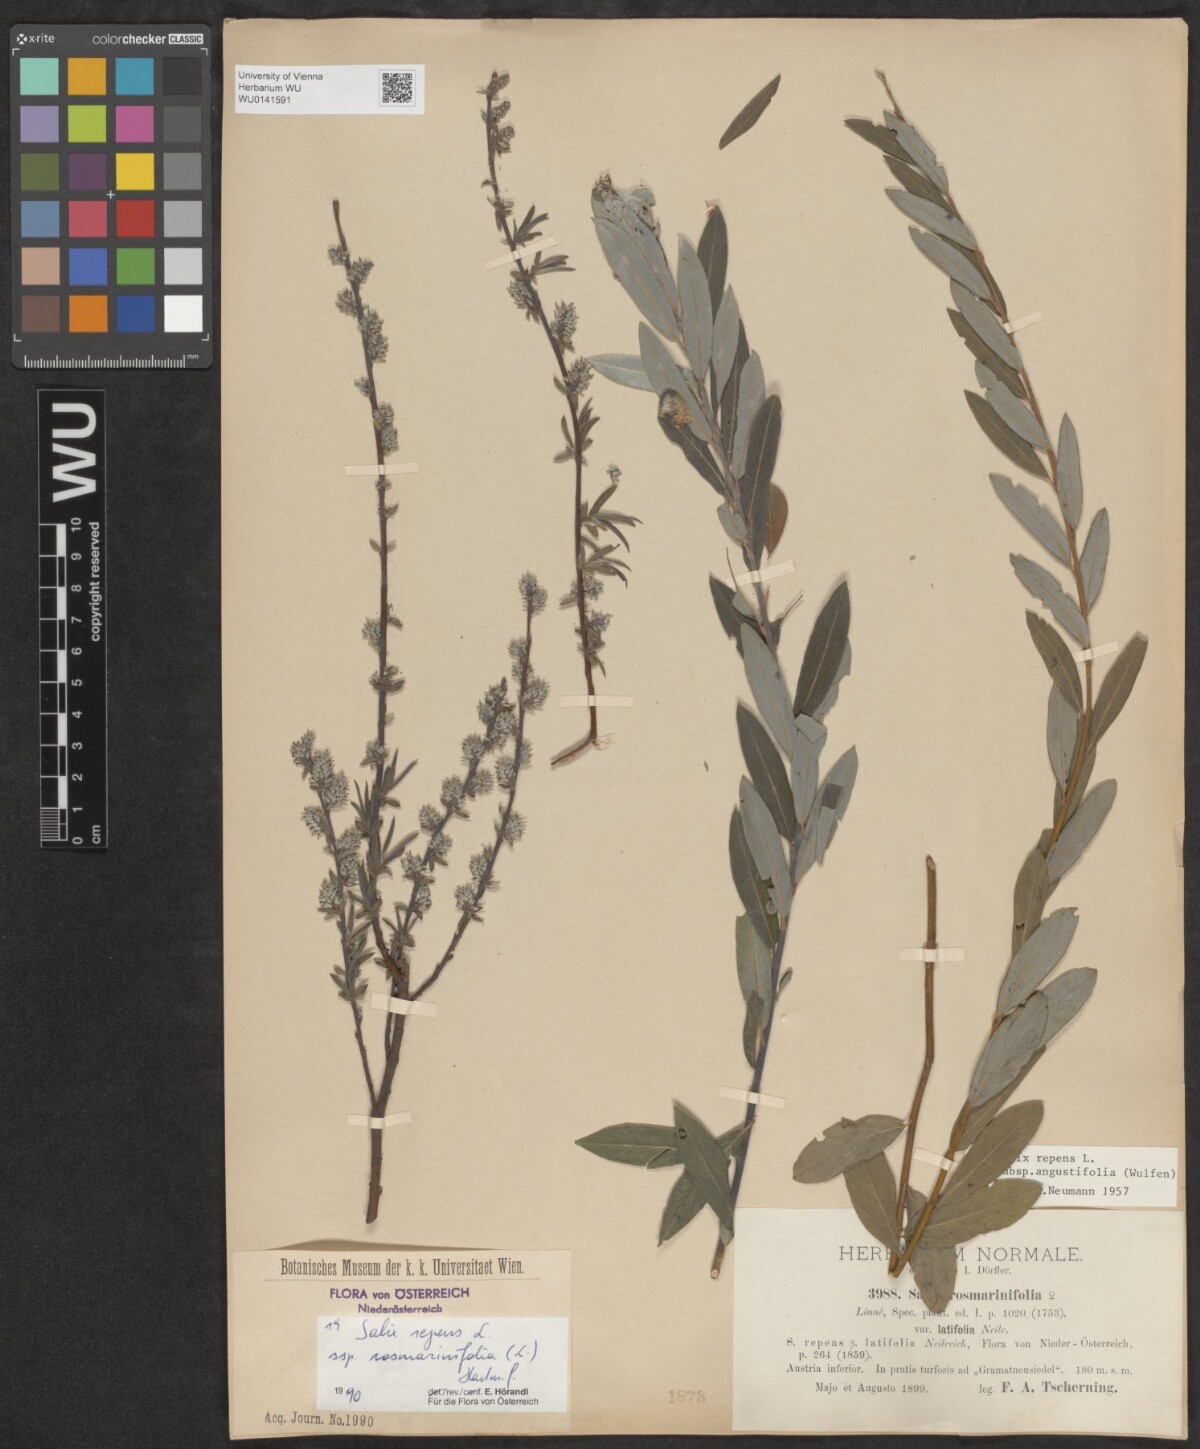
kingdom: Plantae
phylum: Tracheophyta
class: Magnoliopsida
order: Malpighiales
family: Salicaceae
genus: Salix
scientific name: Salix repens
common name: Creeping willow
